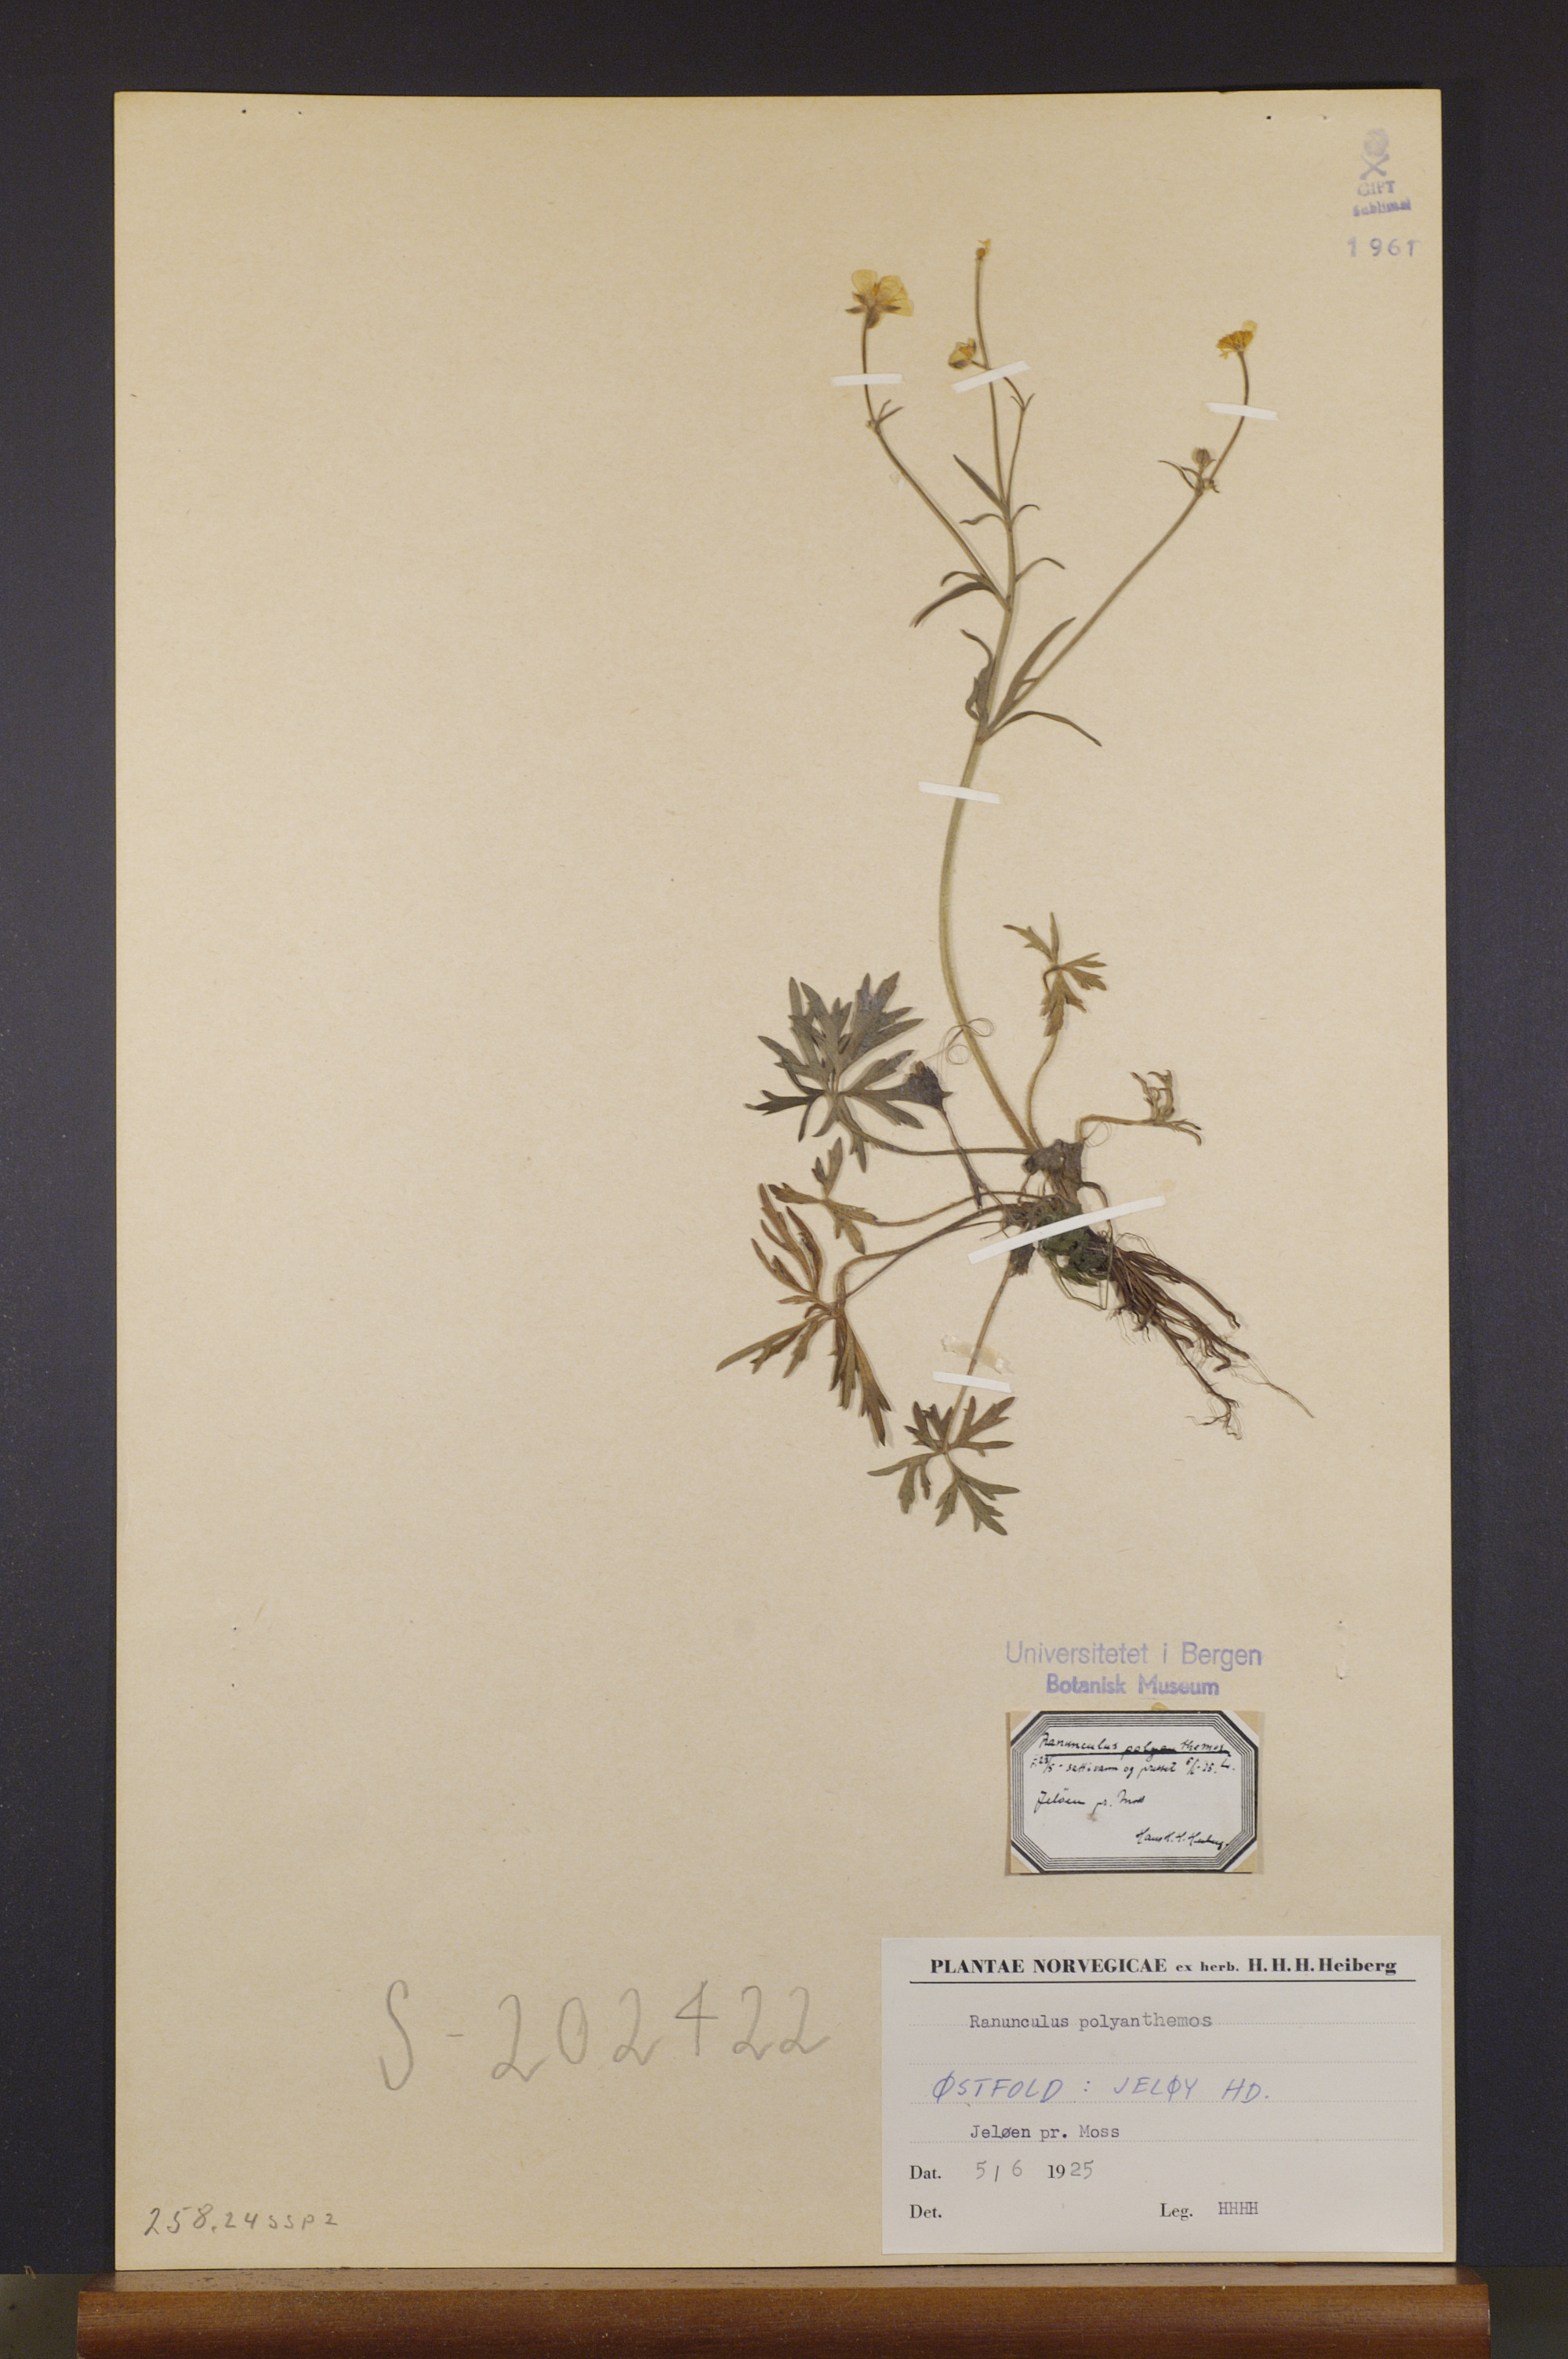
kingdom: Plantae
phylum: Tracheophyta
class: Magnoliopsida
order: Ranunculales
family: Ranunculaceae
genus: Ranunculus
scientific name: Ranunculus polyanthemos
